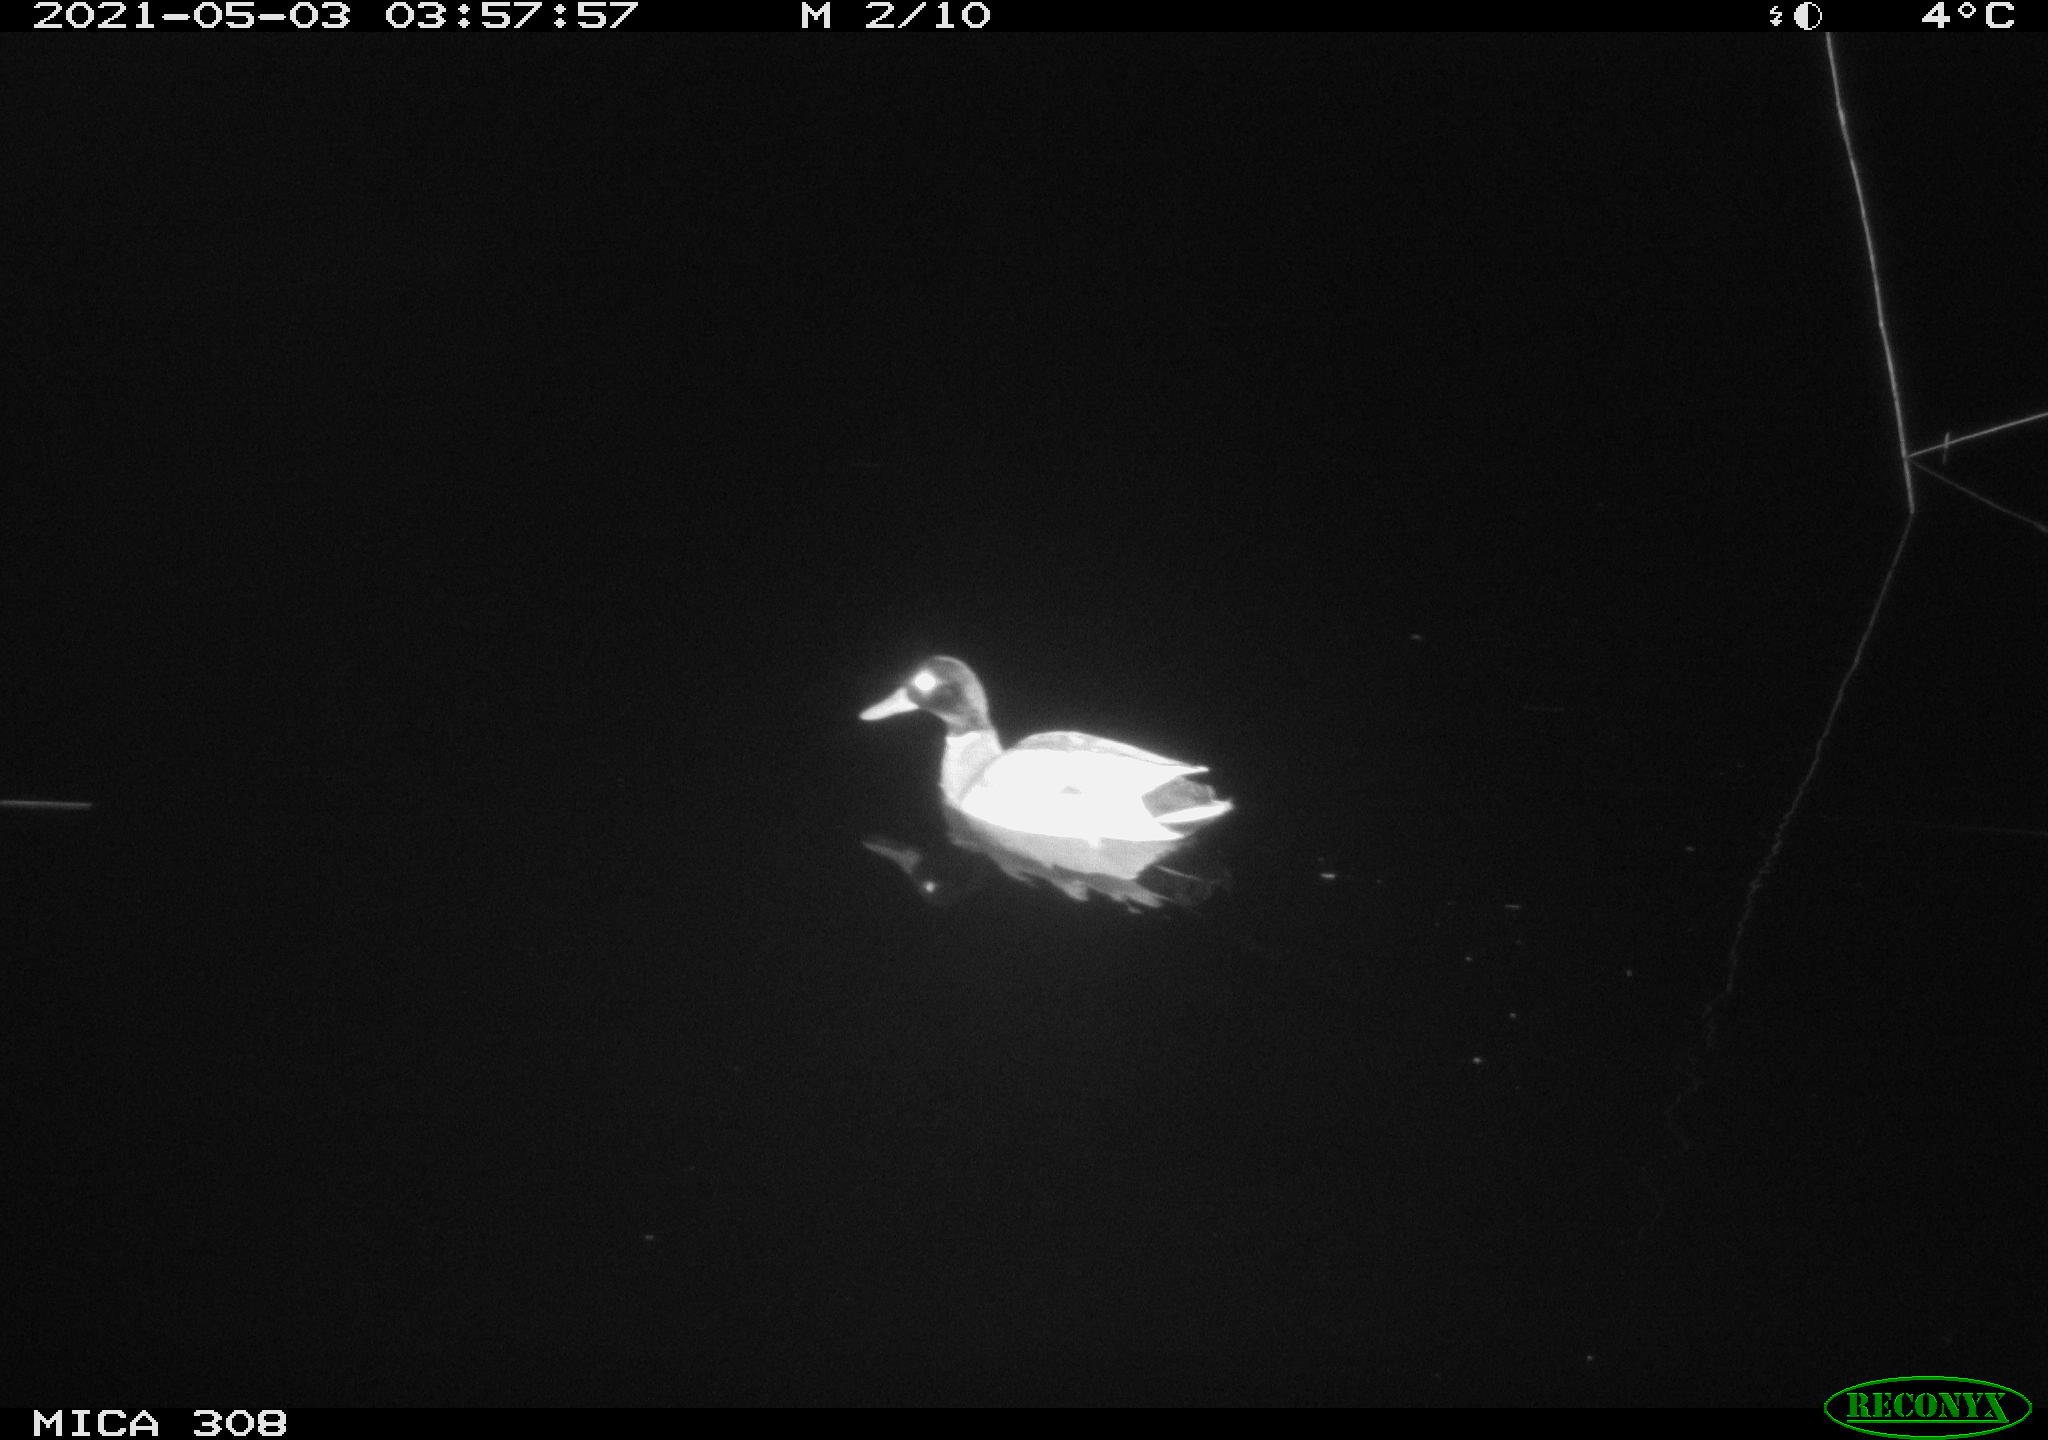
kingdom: Animalia
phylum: Chordata
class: Aves
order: Anseriformes
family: Anatidae
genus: Anas
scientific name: Anas platyrhynchos
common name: Mallard
